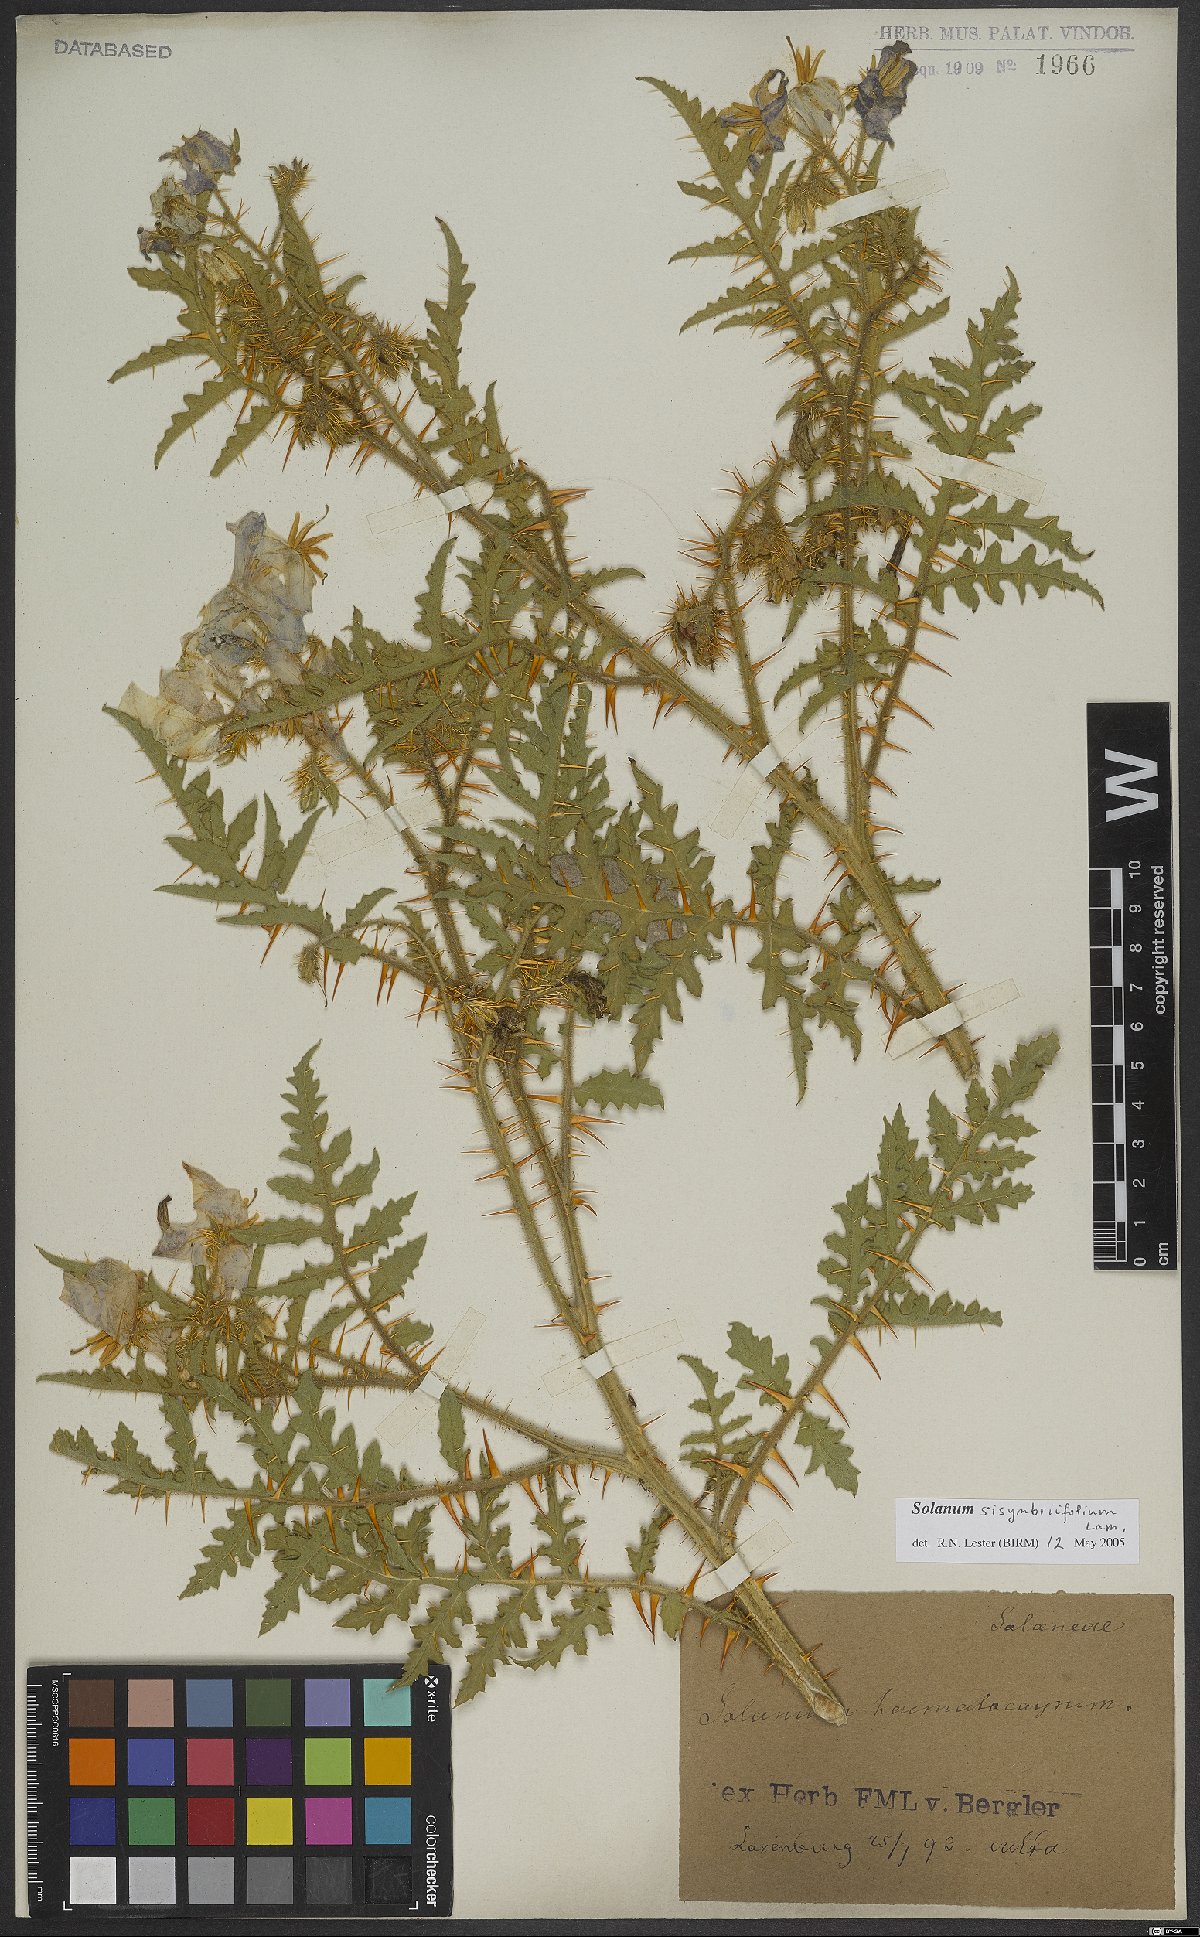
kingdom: Plantae
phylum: Tracheophyta
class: Magnoliopsida
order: Solanales
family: Solanaceae
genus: Solanum
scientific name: Solanum sisymbriifolium
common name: Red buffalo-bur
